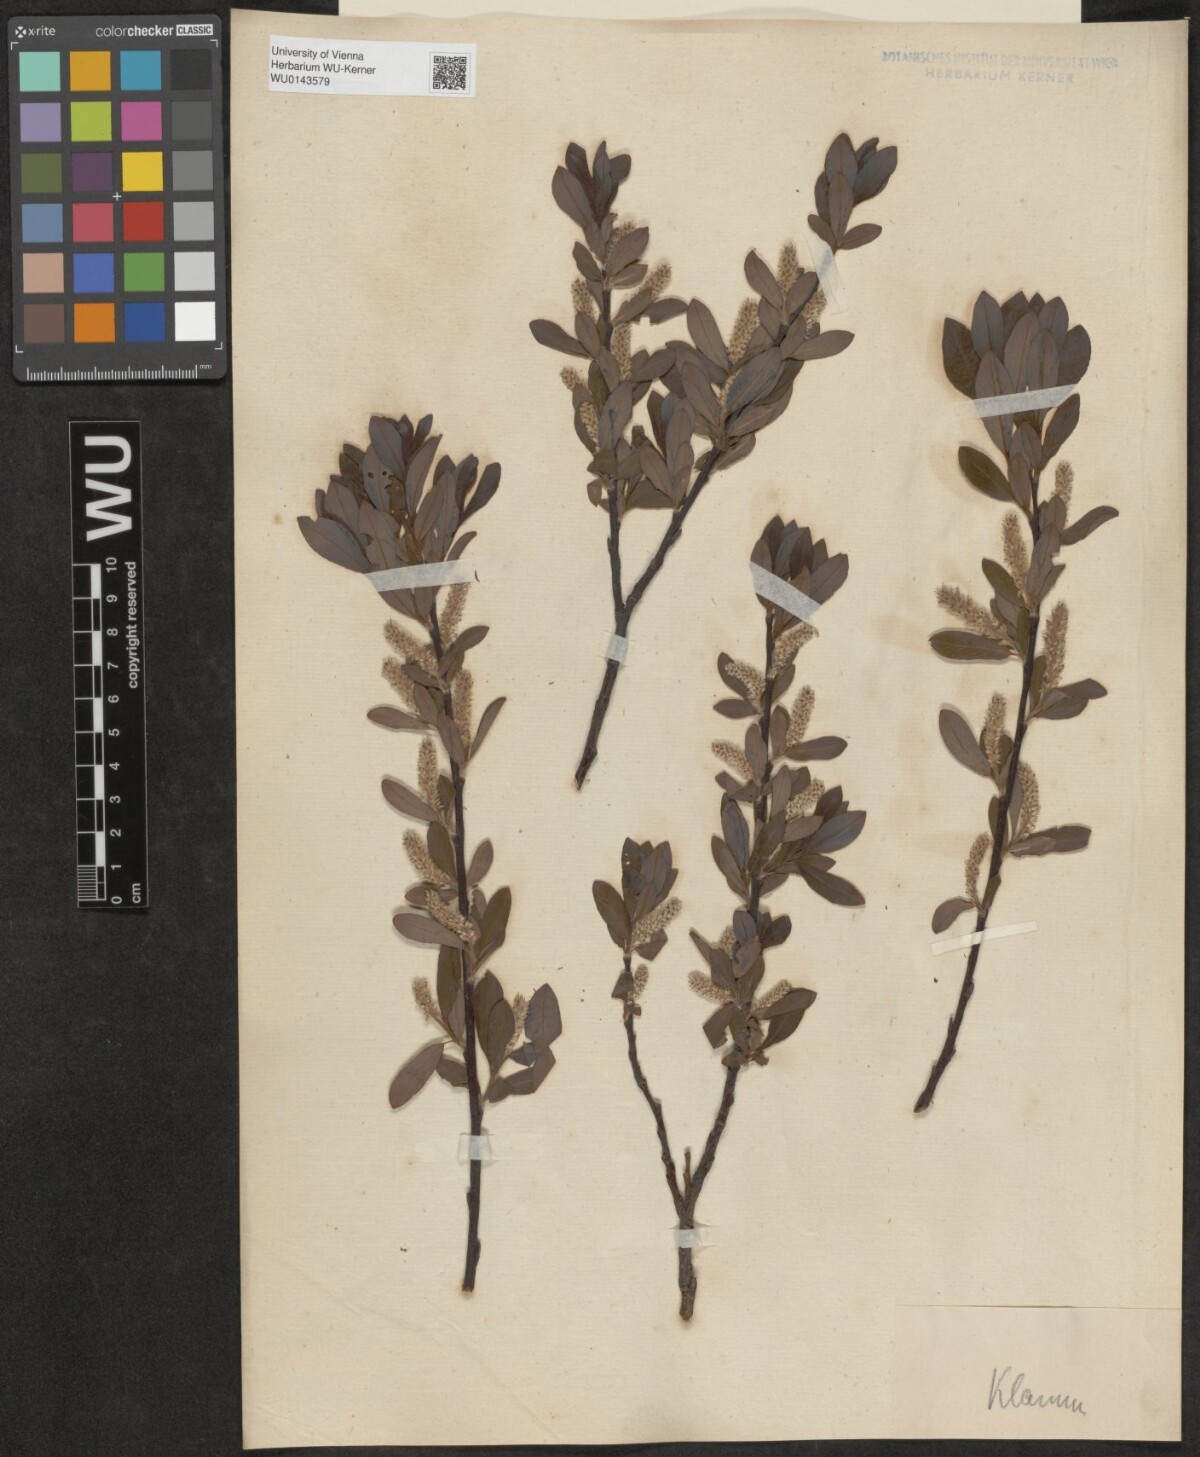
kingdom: Plantae
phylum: Tracheophyta
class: Magnoliopsida
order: Malpighiales
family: Salicaceae
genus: Salix
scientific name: Salix waldsteiniana
